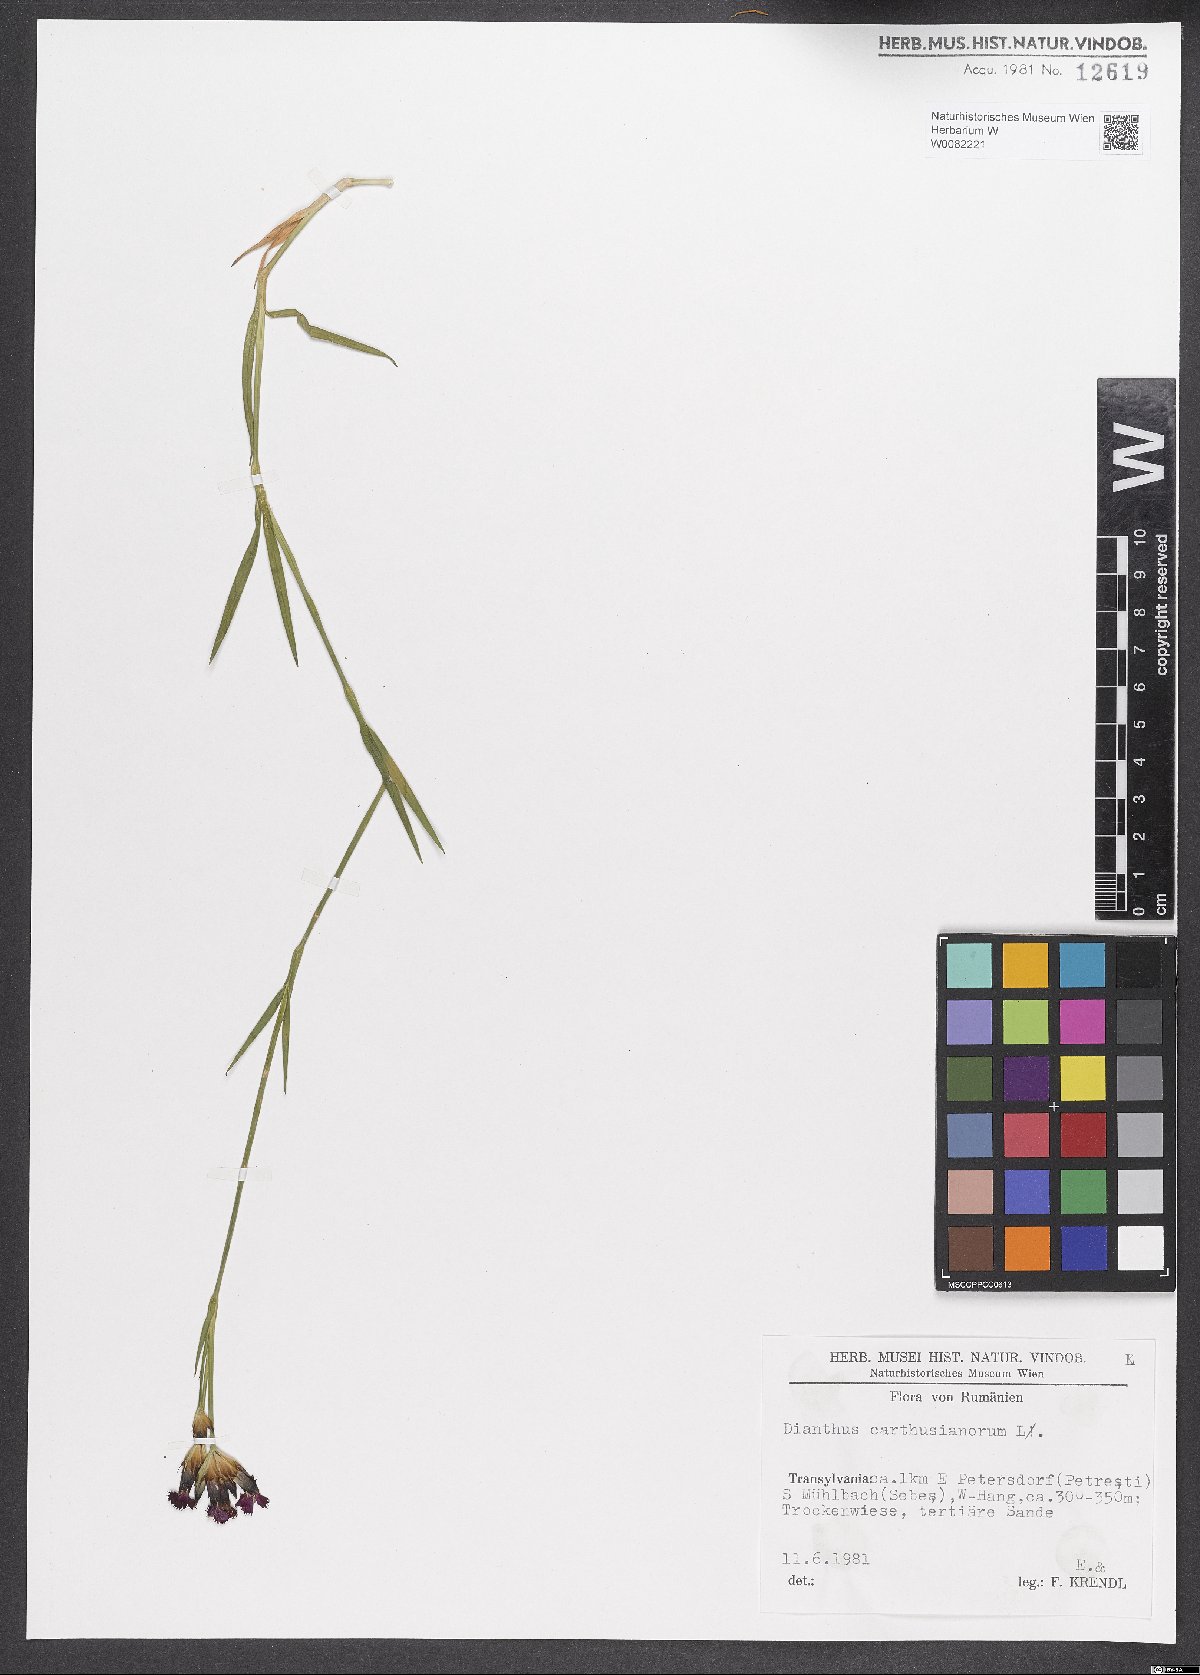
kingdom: Plantae
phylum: Tracheophyta
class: Magnoliopsida
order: Caryophyllales
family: Caryophyllaceae
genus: Dianthus
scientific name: Dianthus carthusianorum
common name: Carthusian pink
